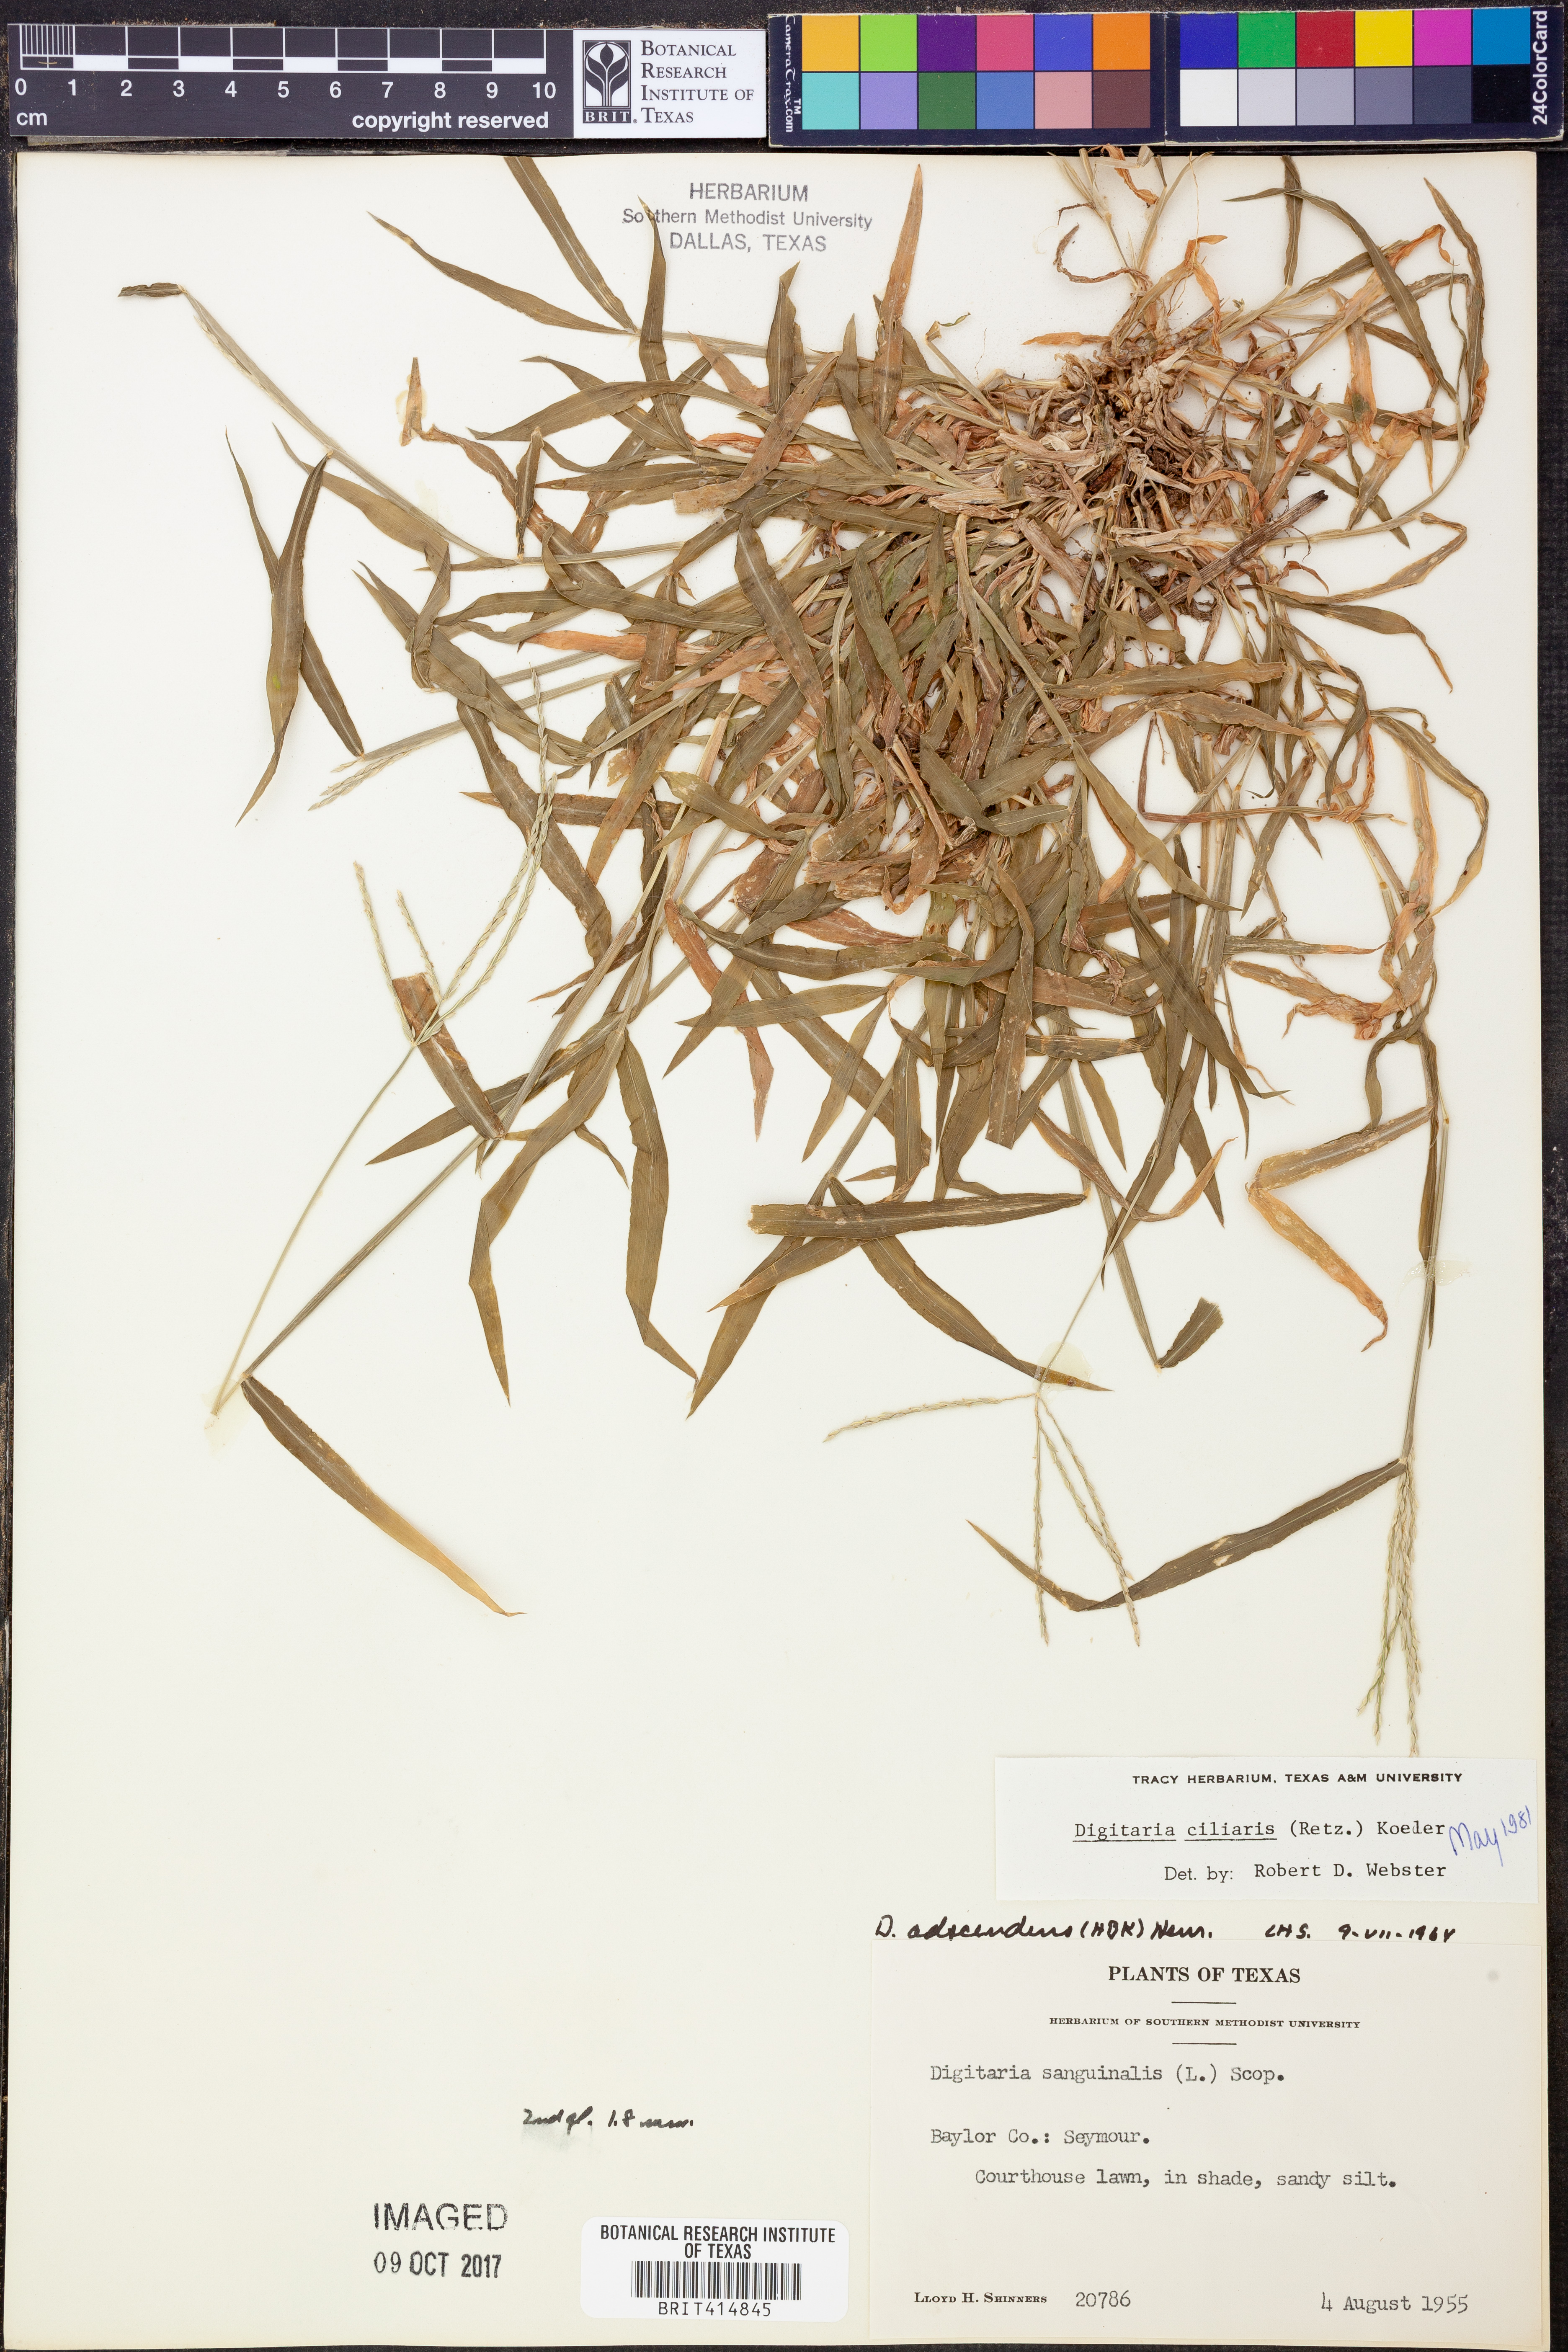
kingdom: Plantae
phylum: Tracheophyta
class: Liliopsida
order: Poales
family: Poaceae
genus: Digitaria
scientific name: Digitaria ciliaris
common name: Tropical finger-grass
